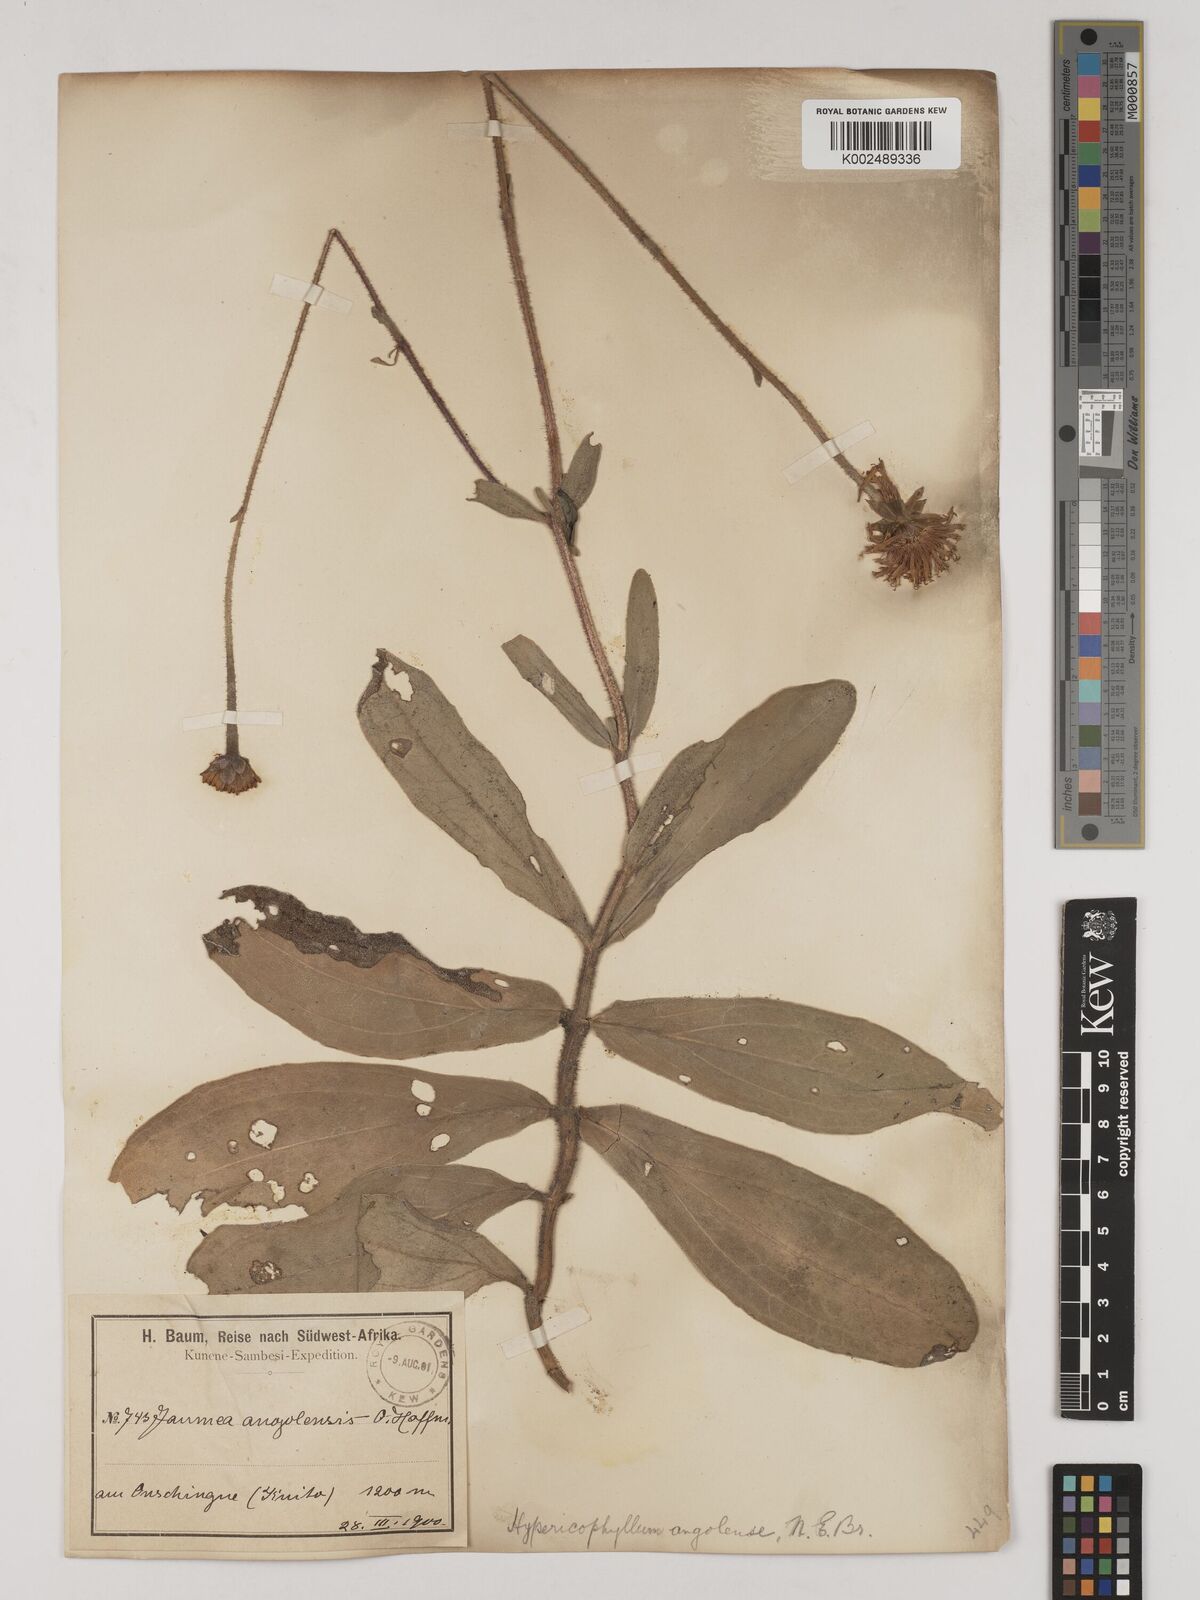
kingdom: Plantae
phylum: Tracheophyta
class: Magnoliopsida
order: Asterales
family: Asteraceae
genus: Hypericophyllum
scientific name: Hypericophyllum angolense
